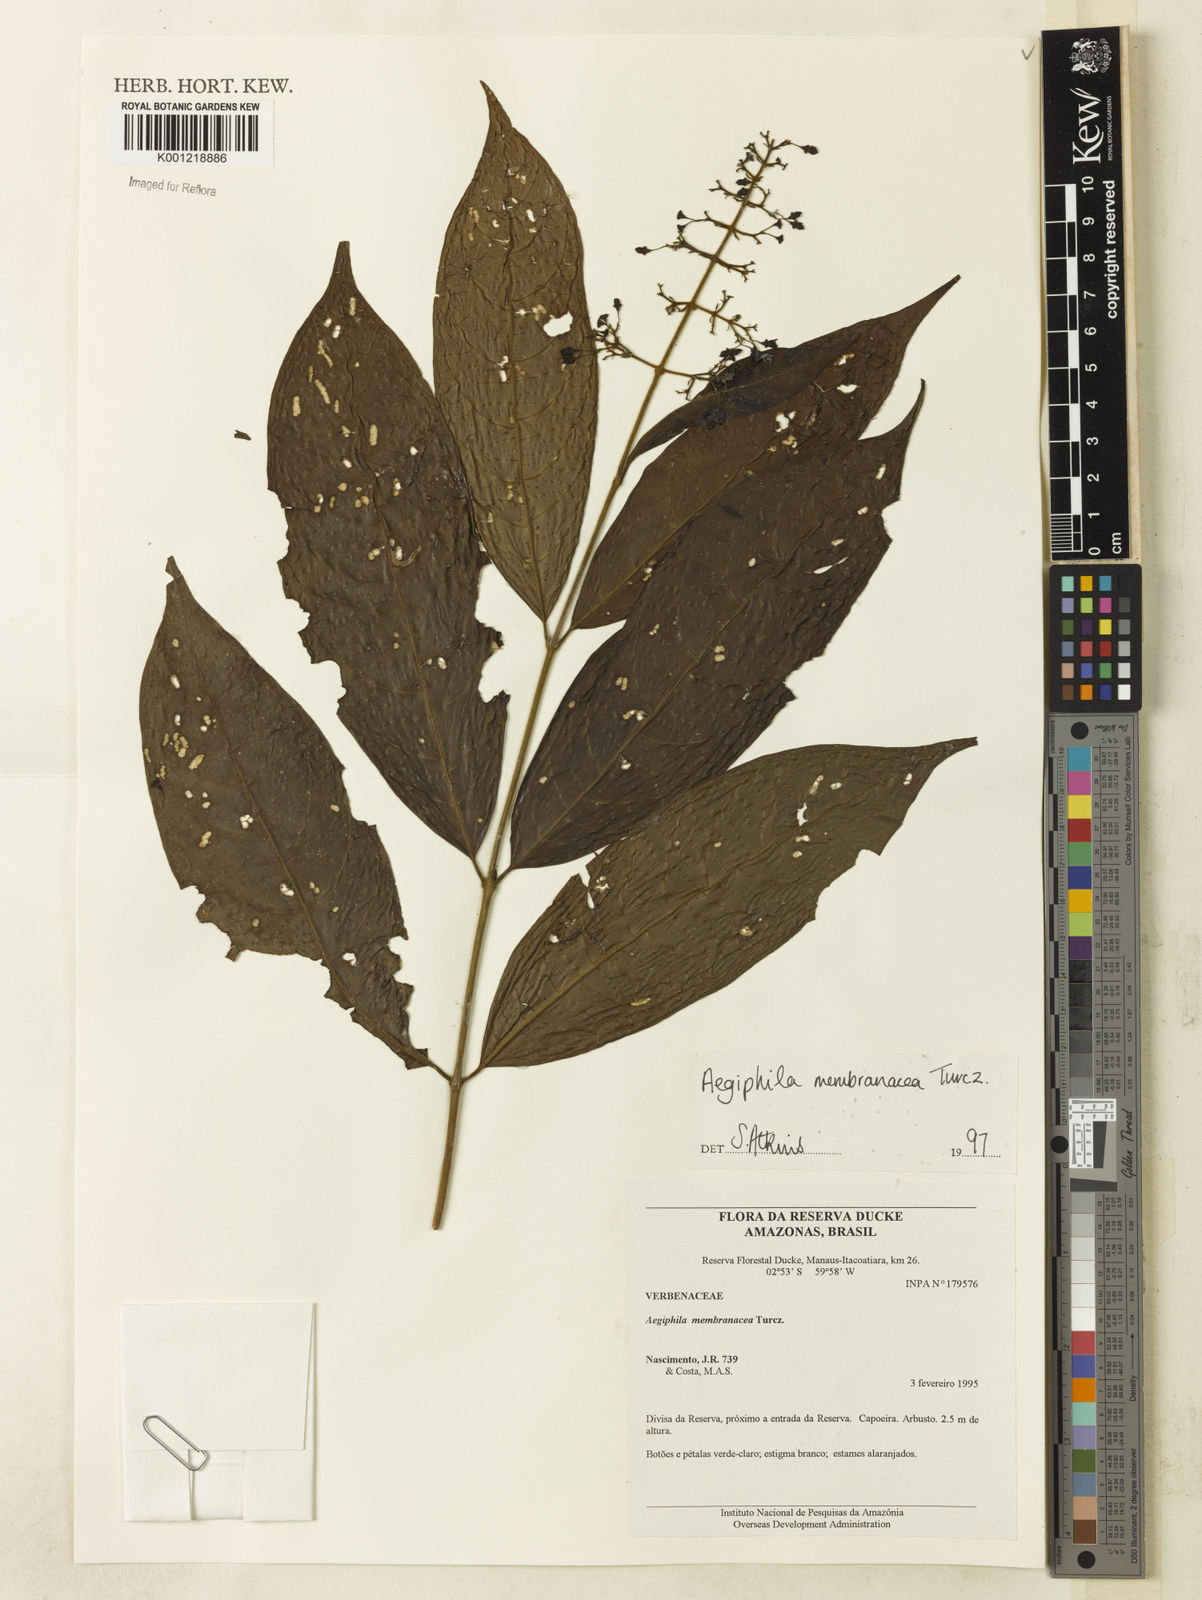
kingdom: Plantae
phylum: Tracheophyta
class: Magnoliopsida
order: Lamiales
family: Lamiaceae
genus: Aegiphila
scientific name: Aegiphila membranacea
